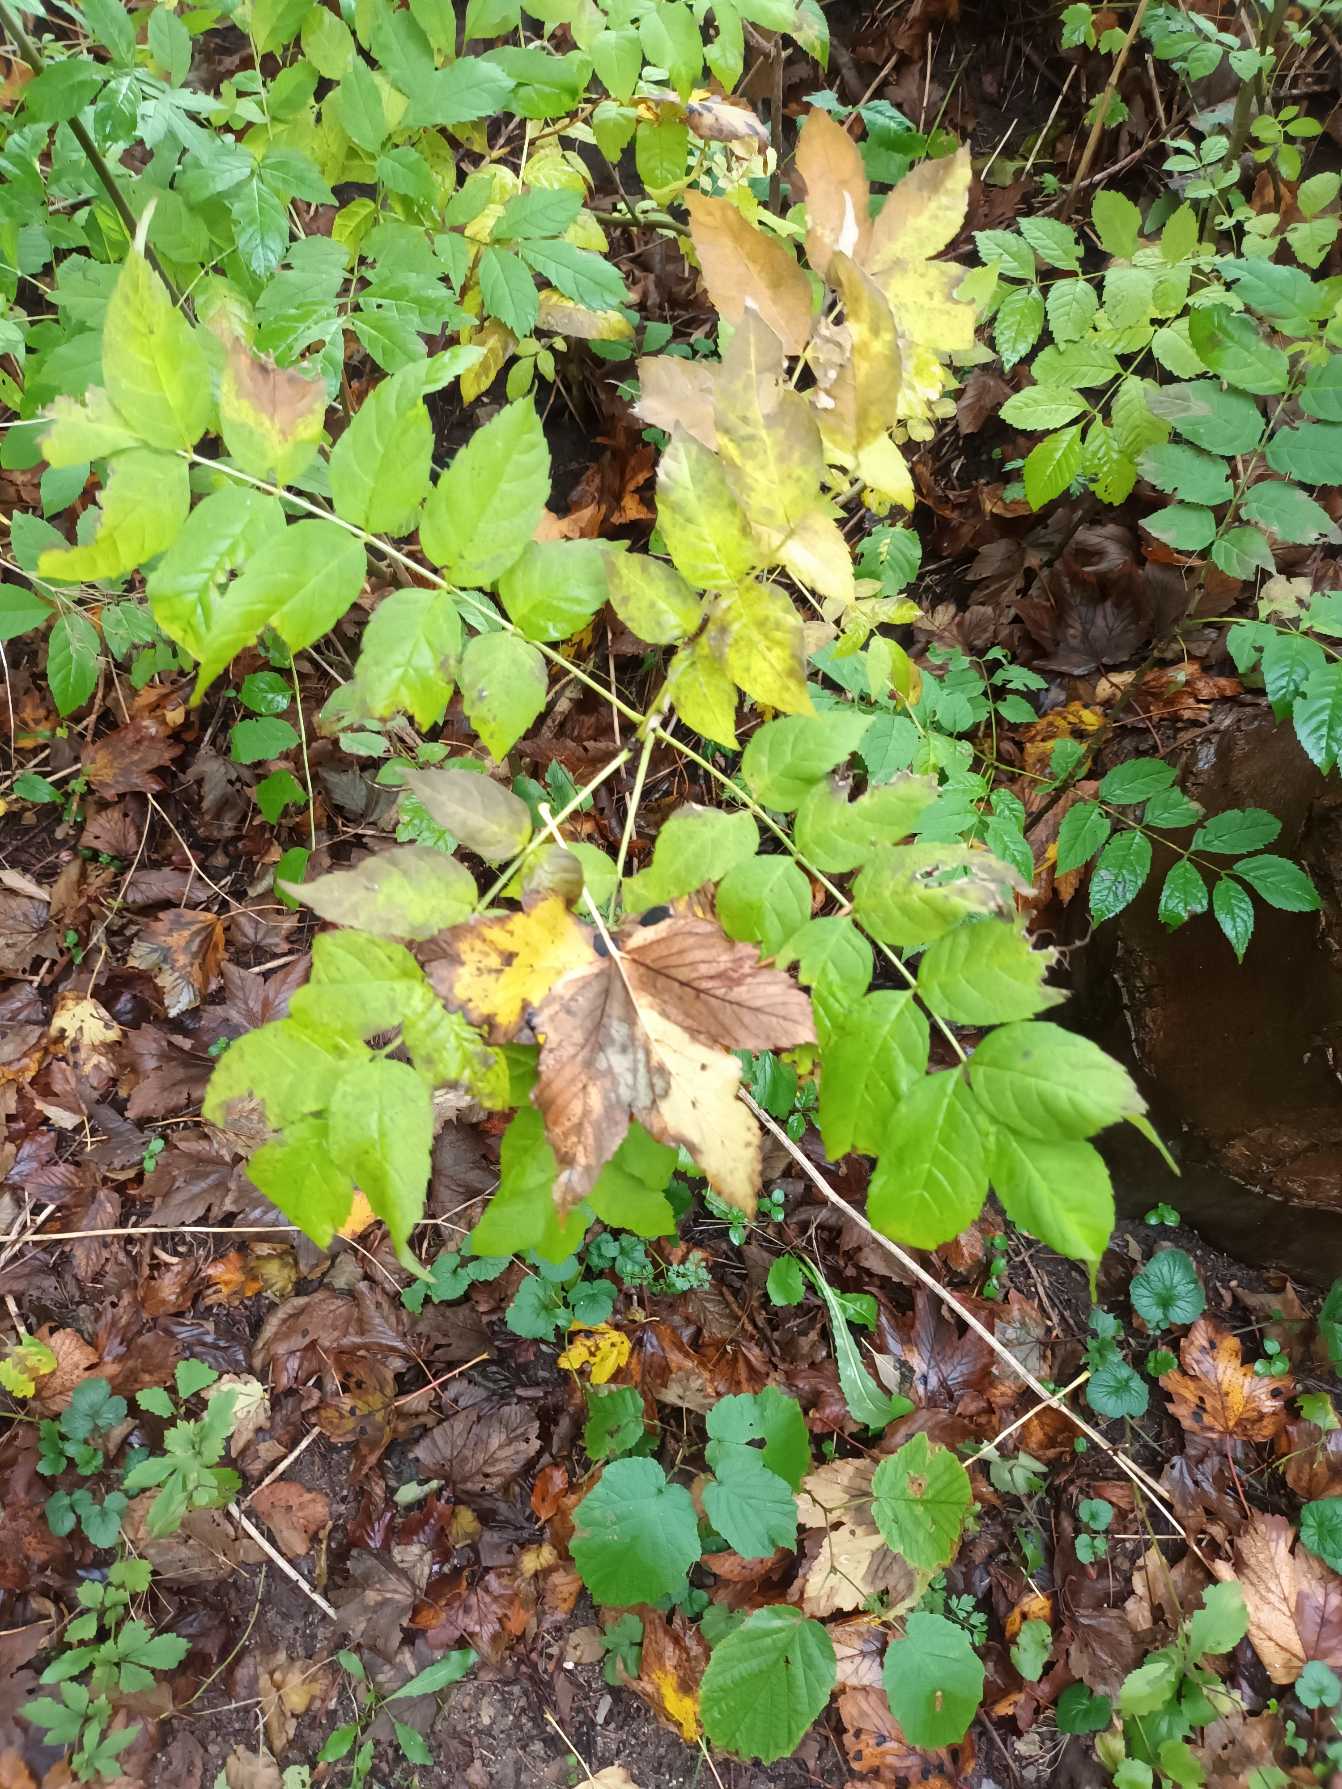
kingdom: Plantae
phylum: Tracheophyta
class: Magnoliopsida
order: Lamiales
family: Oleaceae
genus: Fraxinus
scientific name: Fraxinus excelsior
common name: Ask
